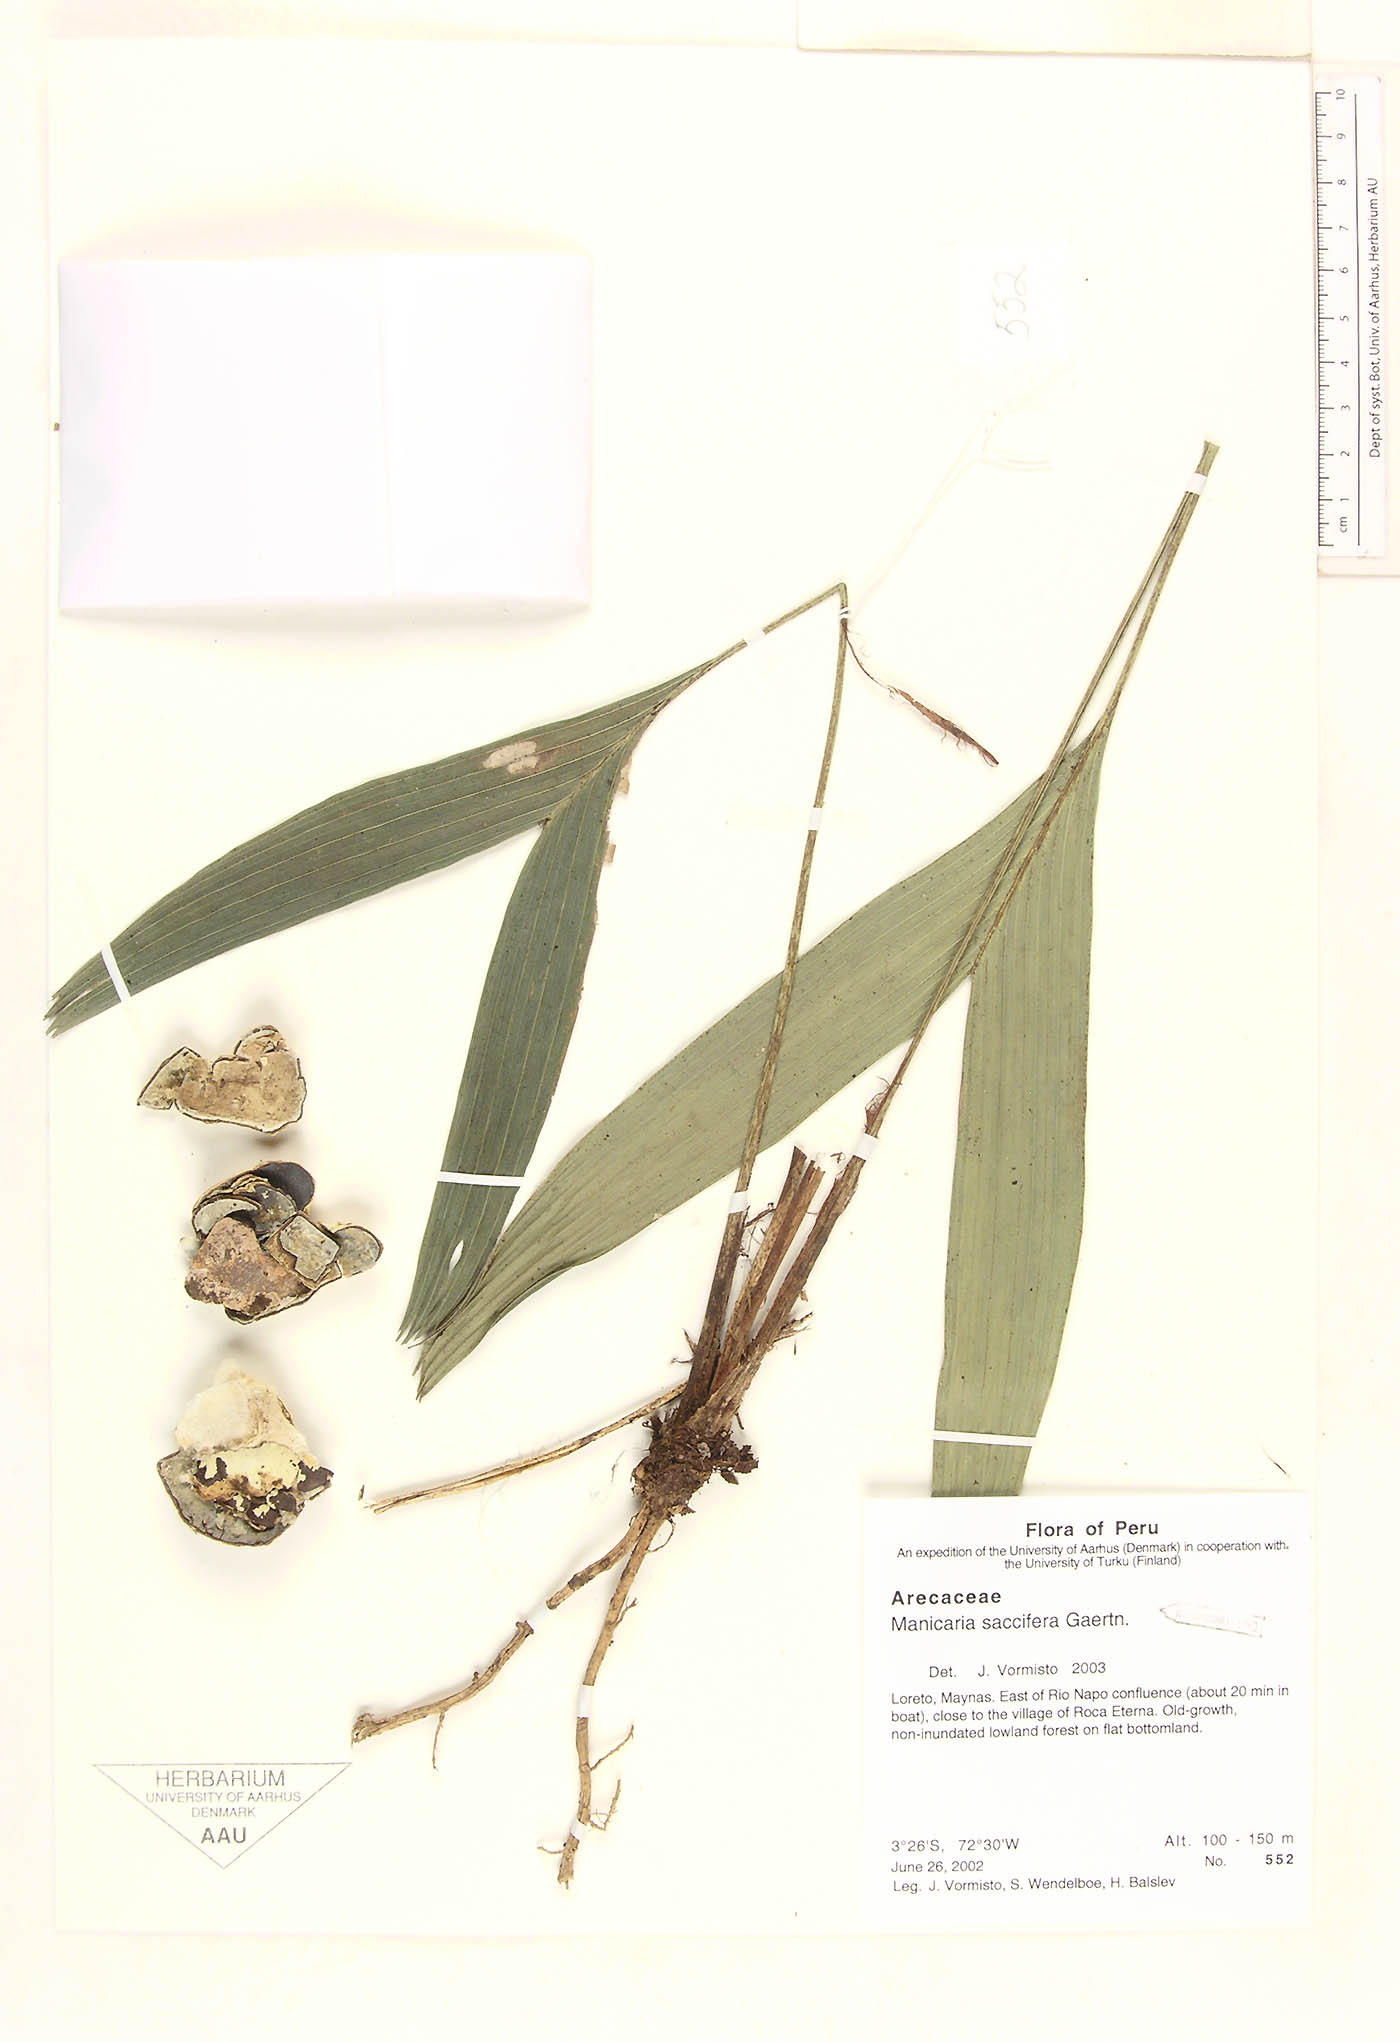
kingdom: Plantae
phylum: Tracheophyta
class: Liliopsida
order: Arecales
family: Arecaceae
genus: Manicaria
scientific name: Manicaria saccifera
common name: Sea coconut
